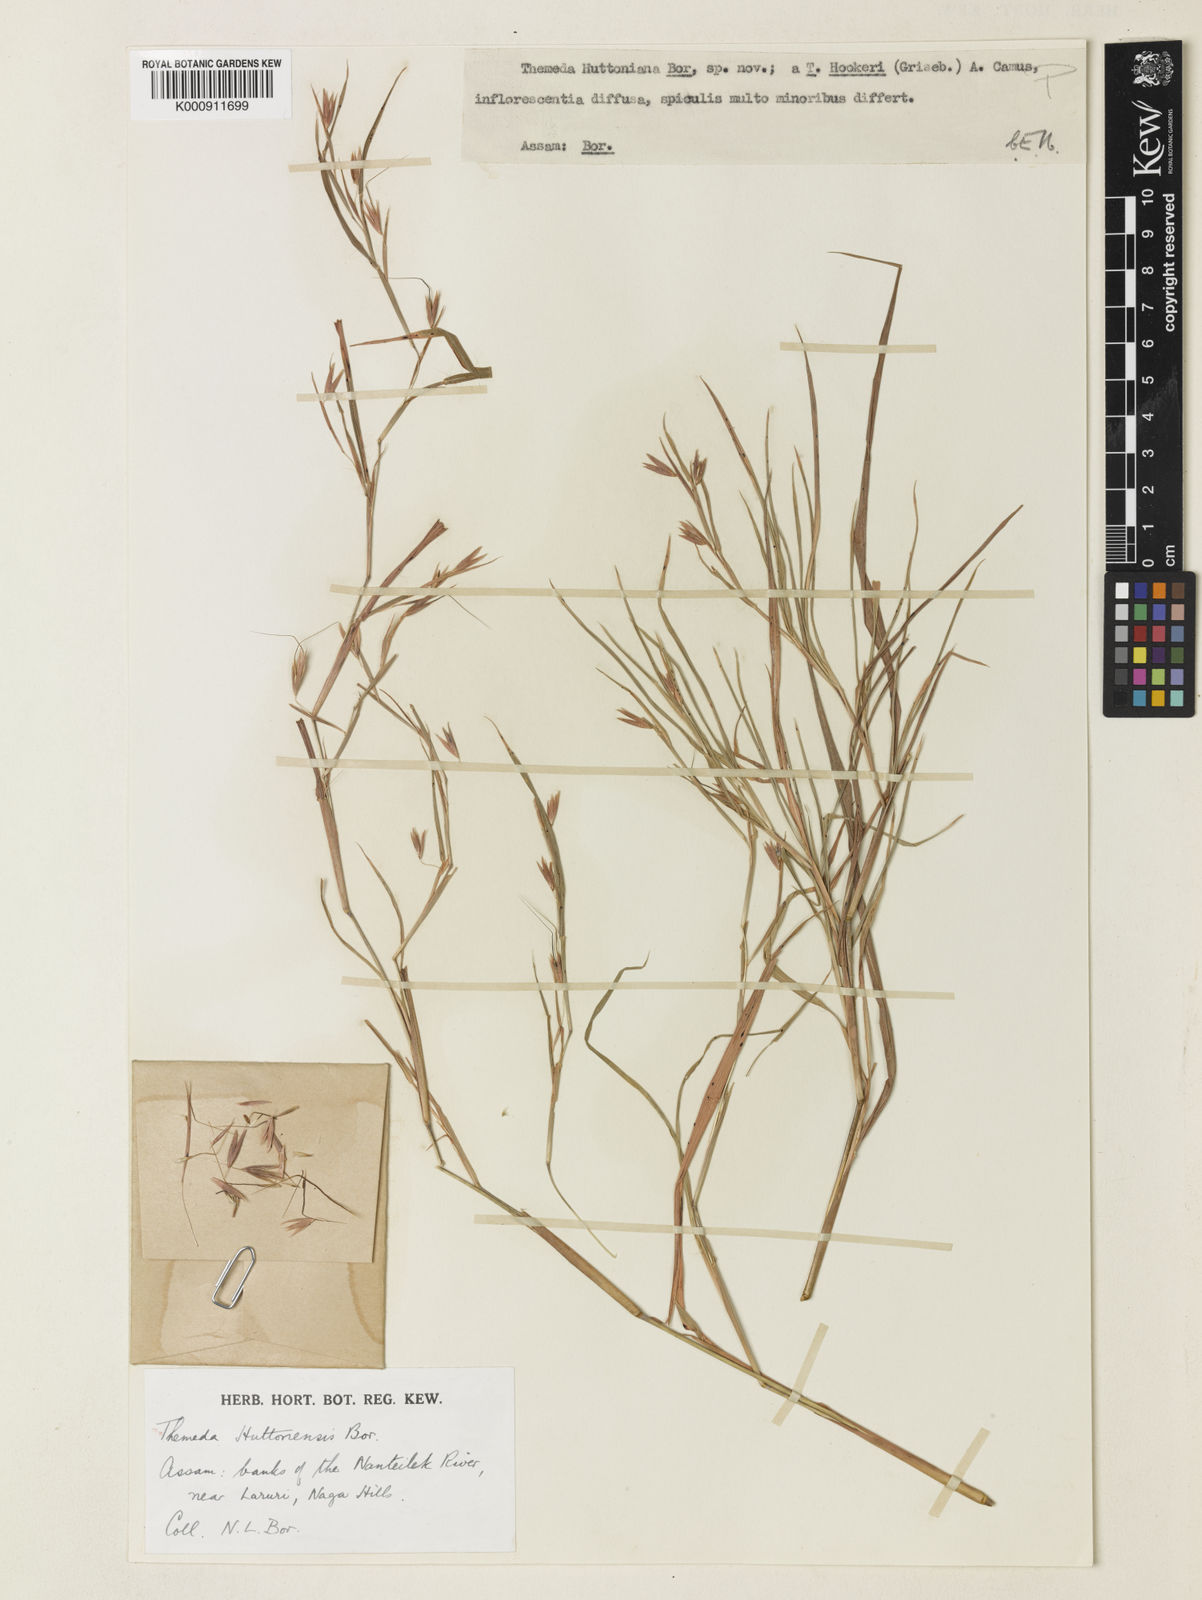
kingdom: Plantae
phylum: Tracheophyta
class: Liliopsida
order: Poales
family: Poaceae
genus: Themeda
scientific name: Themeda huttonensis
